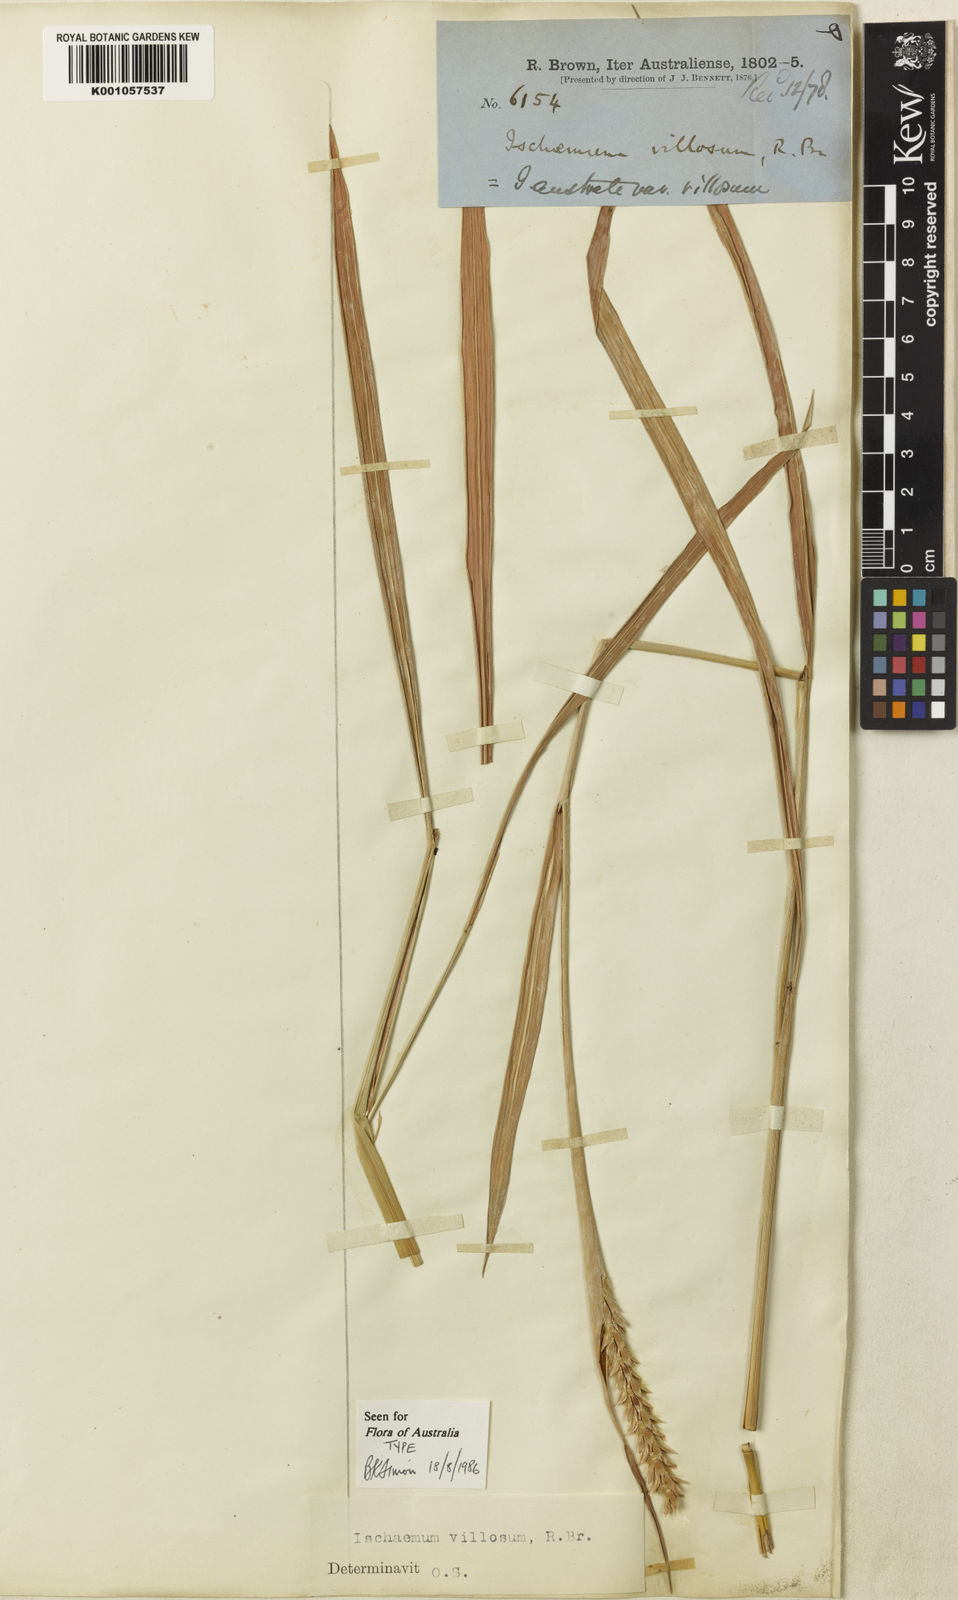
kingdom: Plantae
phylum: Tracheophyta
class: Liliopsida
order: Poales
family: Poaceae
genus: Ischaemum
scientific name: Ischaemum australe
